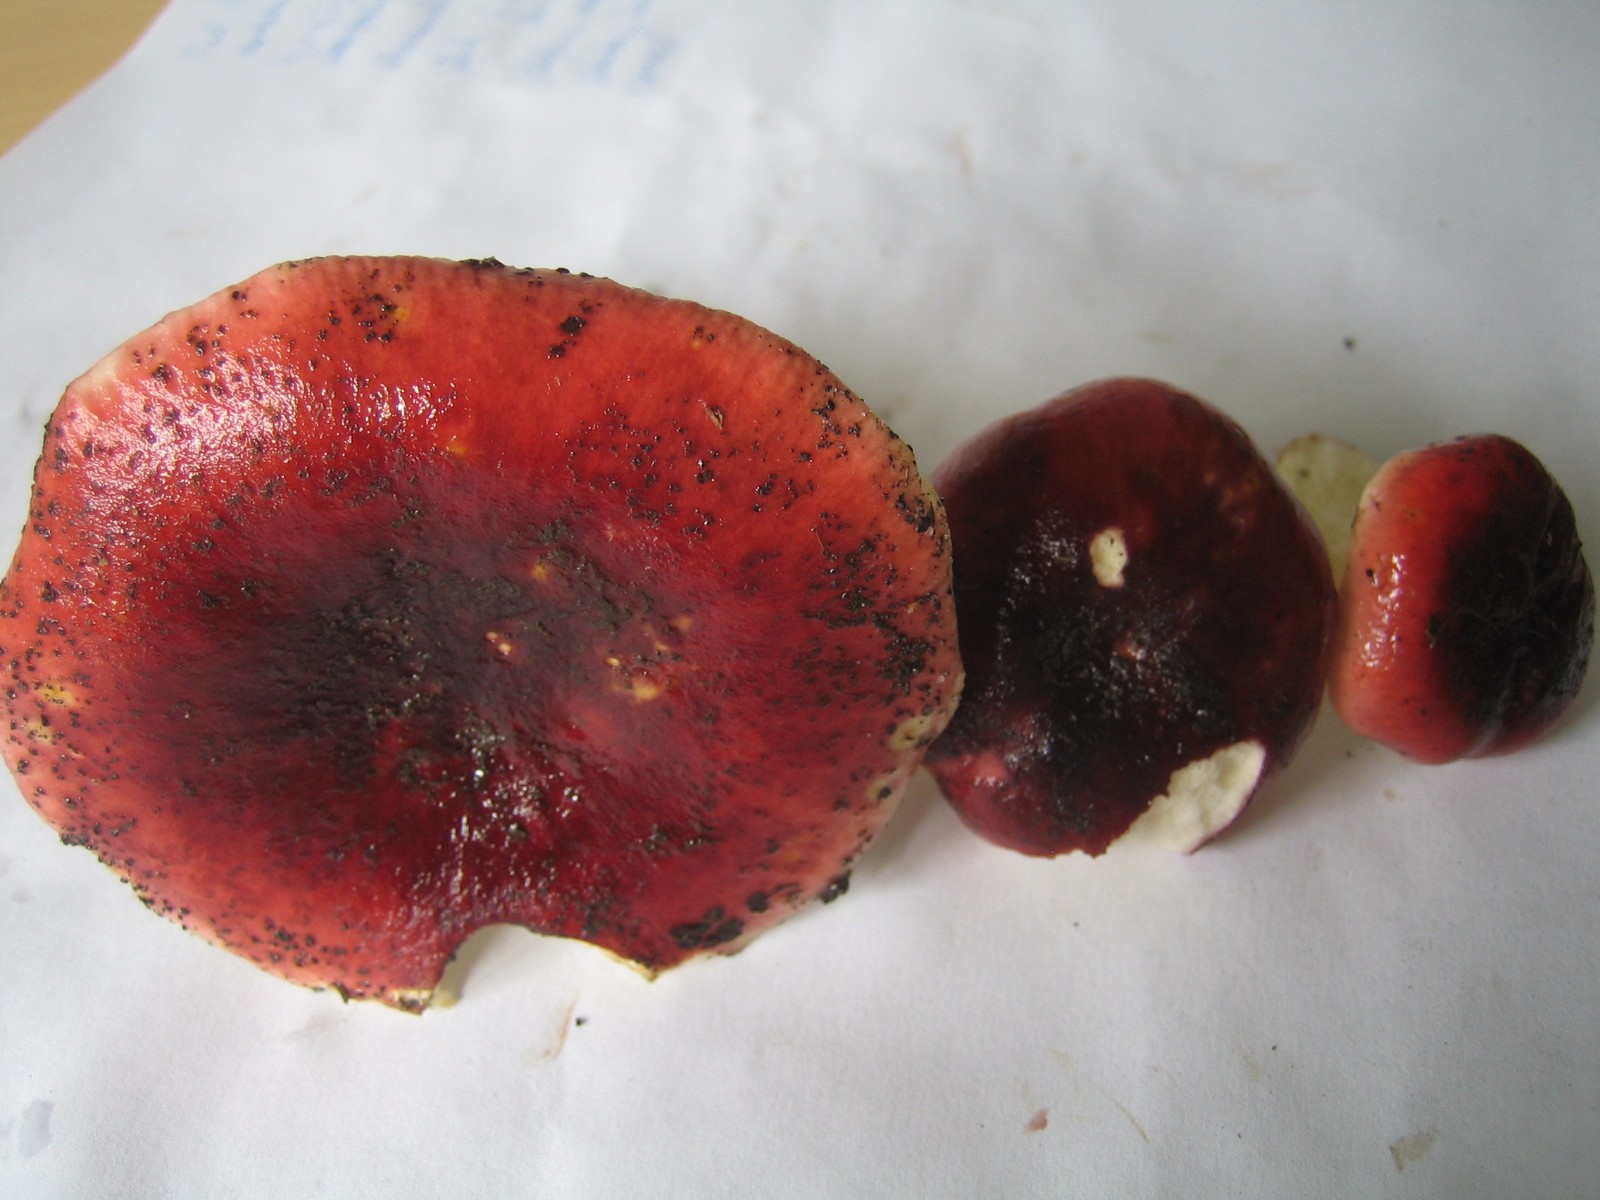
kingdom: Fungi
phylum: Basidiomycota
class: Agaricomycetes
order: Russulales
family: Russulaceae
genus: Russula
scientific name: Russula atropurpurea
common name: purpurbroget skørhat
